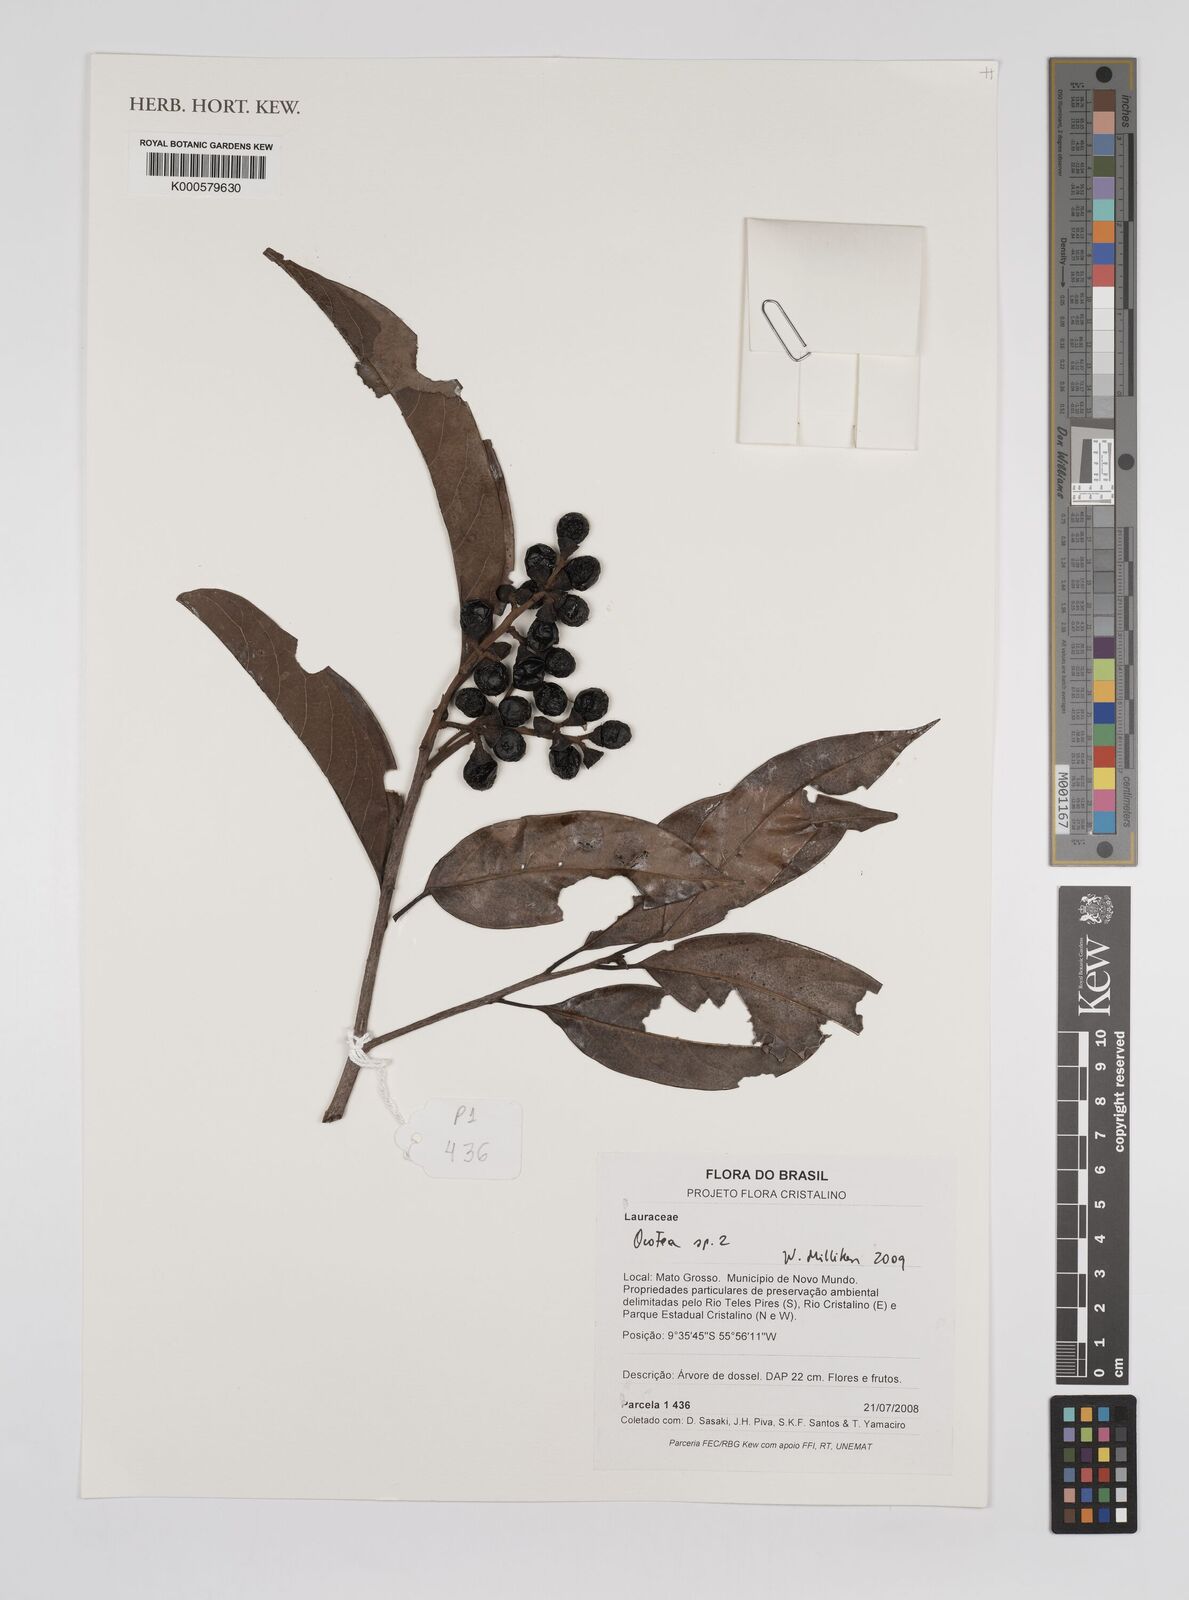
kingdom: Plantae
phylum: Tracheophyta
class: Magnoliopsida
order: Laurales
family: Lauraceae
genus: Ocotea
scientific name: Ocotea
